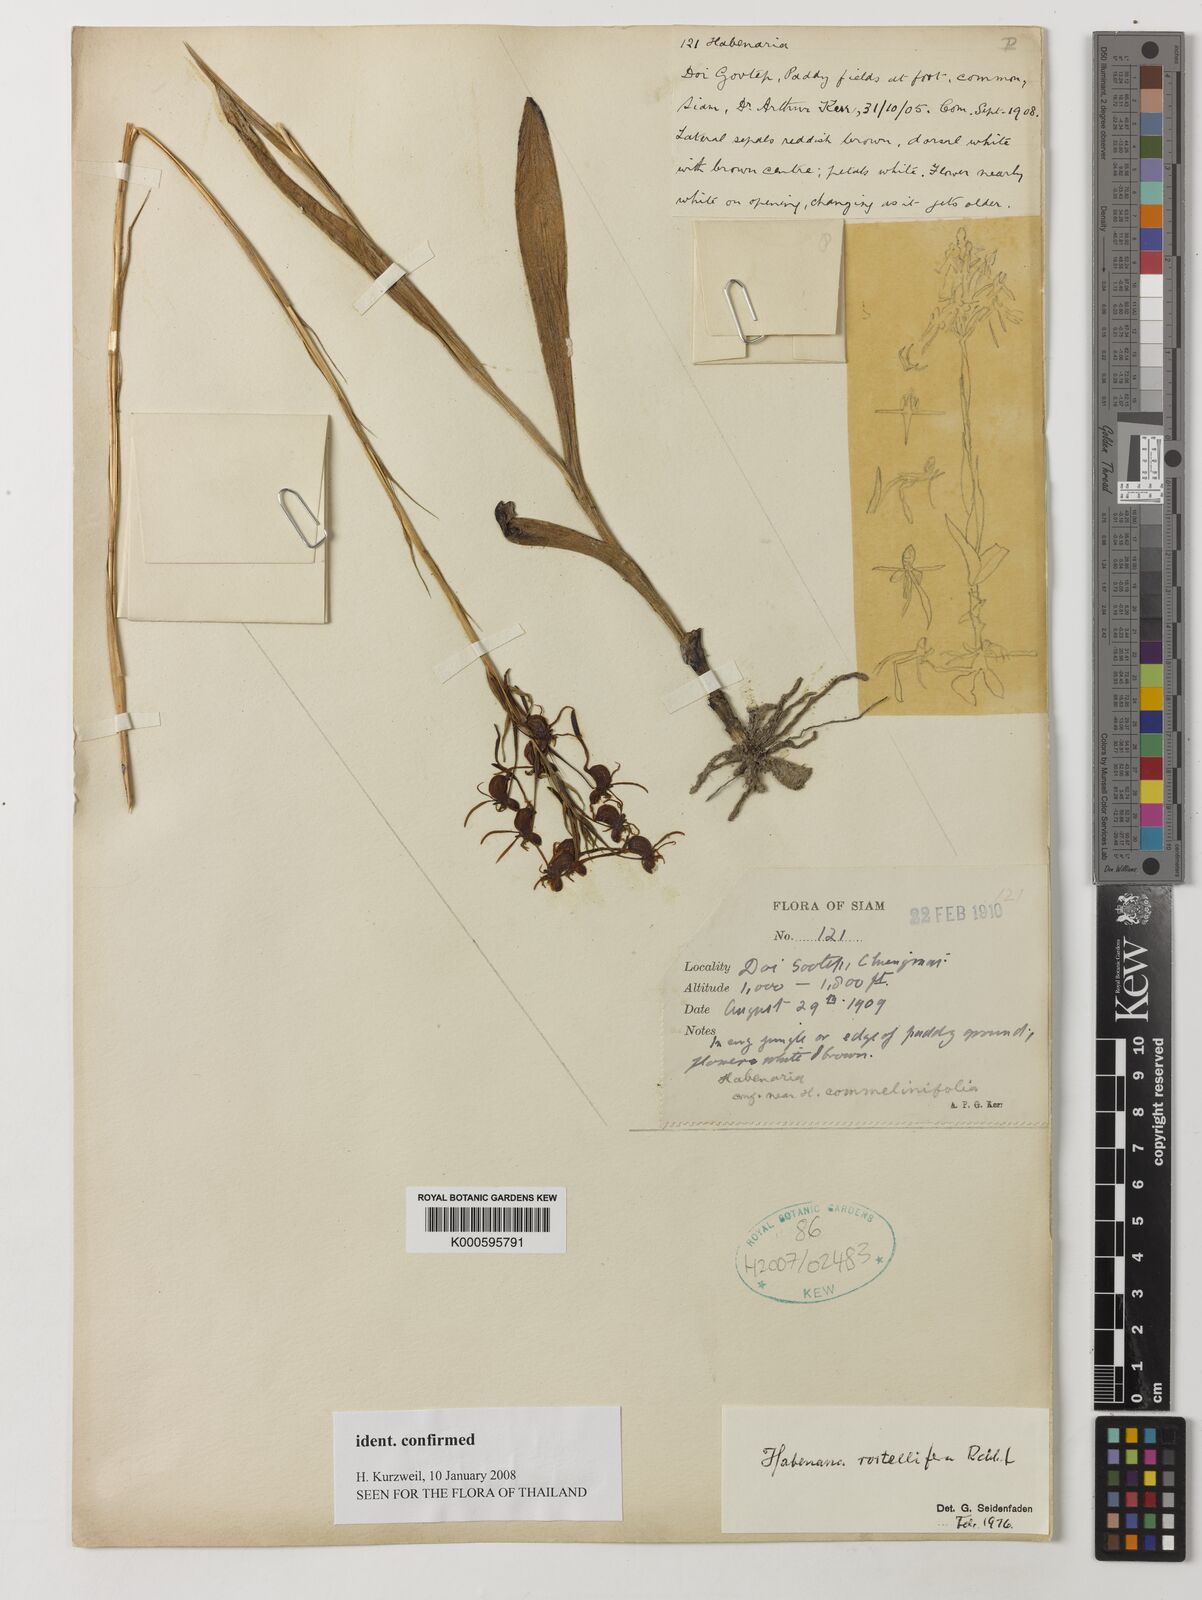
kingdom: Plantae
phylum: Tracheophyta
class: Liliopsida
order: Asparagales
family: Orchidaceae
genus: Habenaria
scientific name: Habenaria rostellifera
